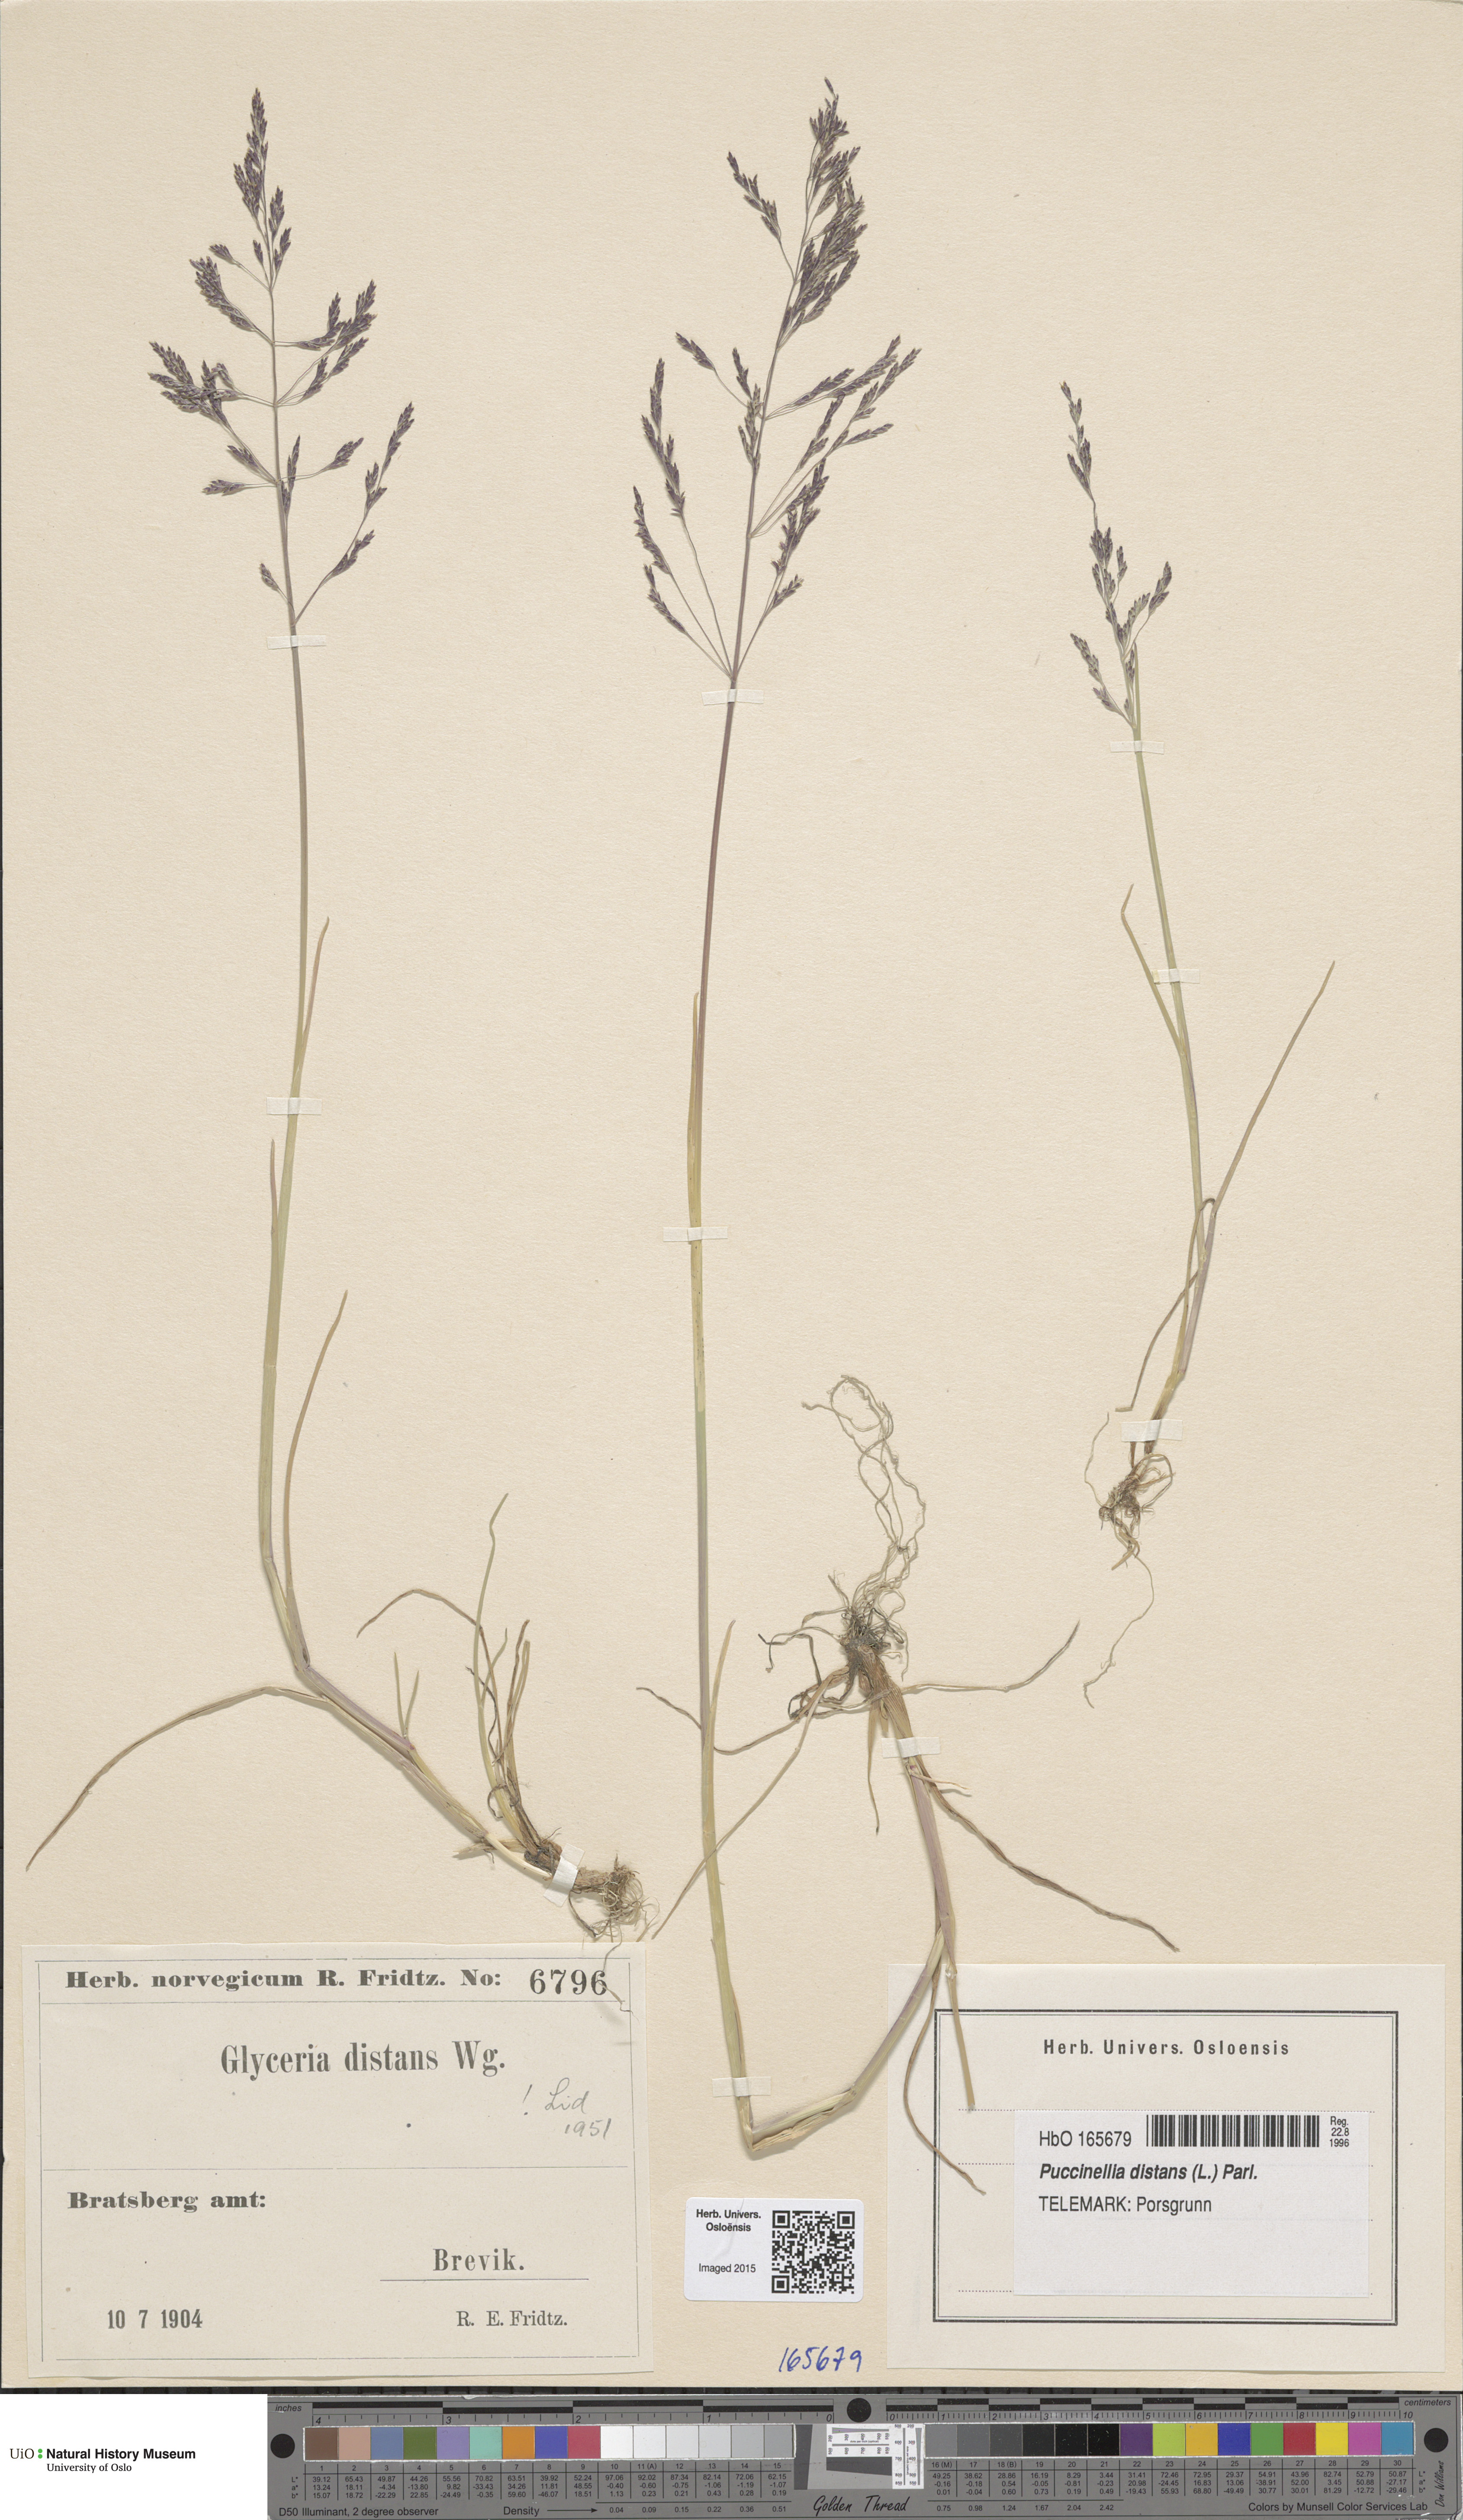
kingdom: Plantae
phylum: Tracheophyta
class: Liliopsida
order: Poales
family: Poaceae
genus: Puccinellia
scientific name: Puccinellia distans
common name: Weeping alkaligrass
